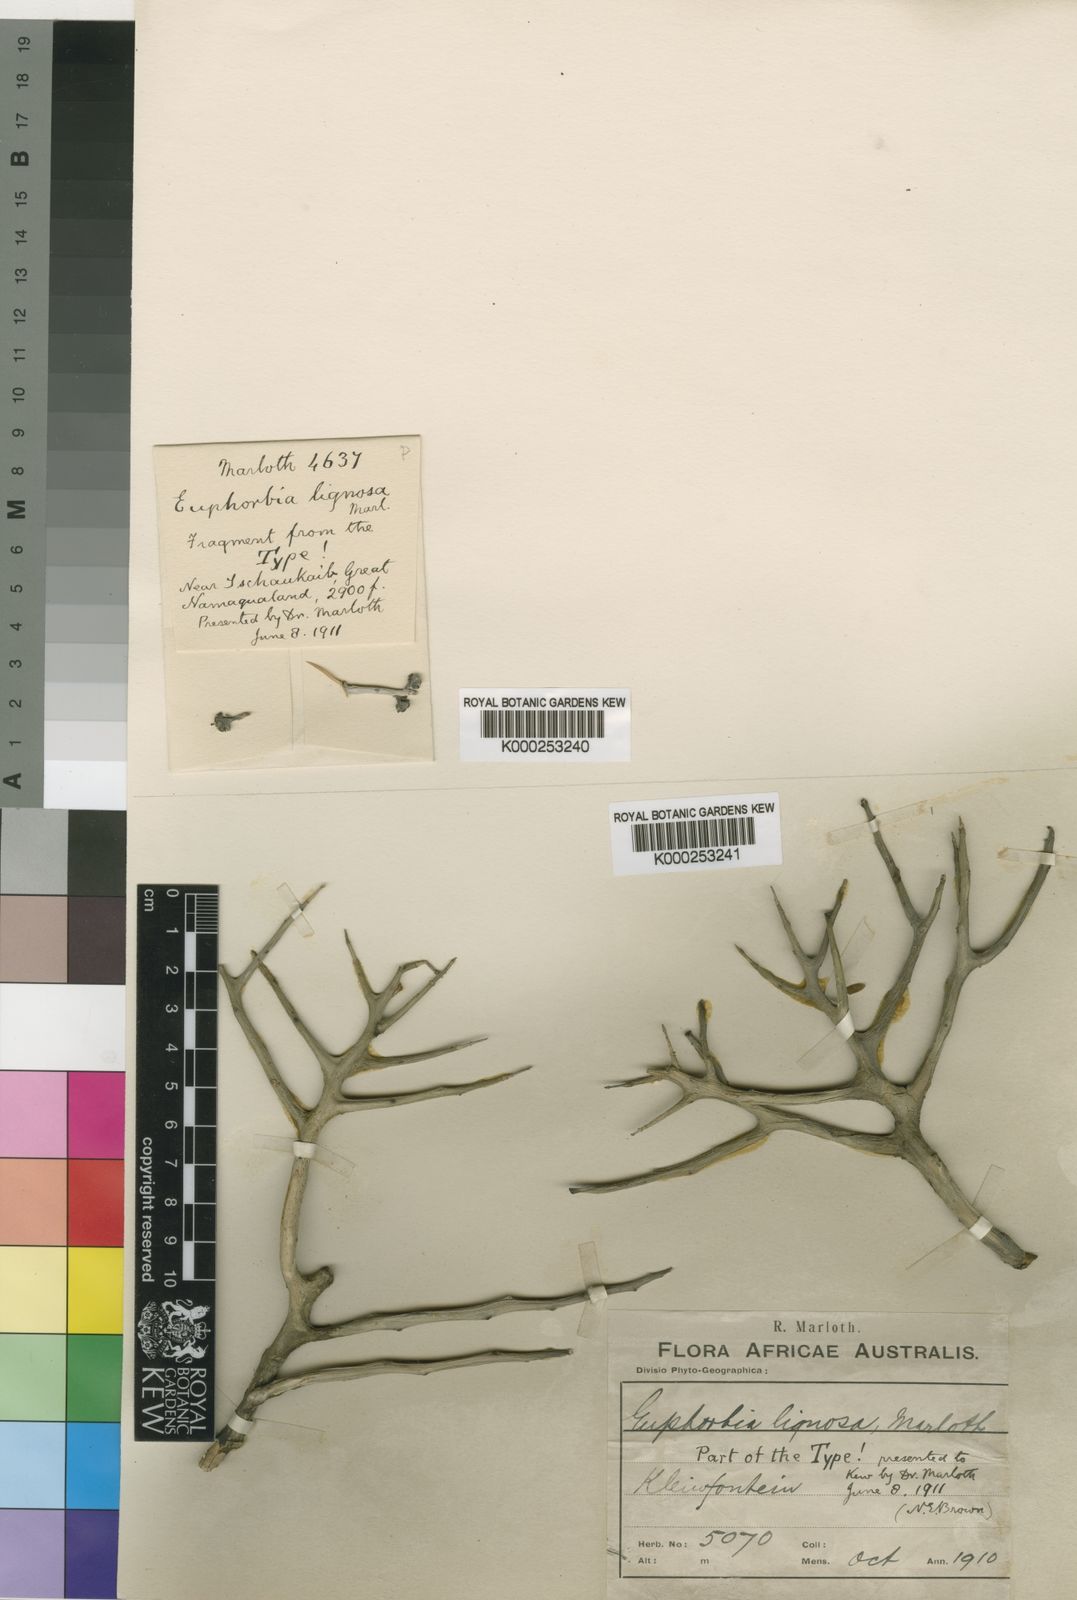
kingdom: Plantae
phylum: Tracheophyta
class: Magnoliopsida
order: Malpighiales
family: Euphorbiaceae
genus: Euphorbia
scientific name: Euphorbia lignosa
